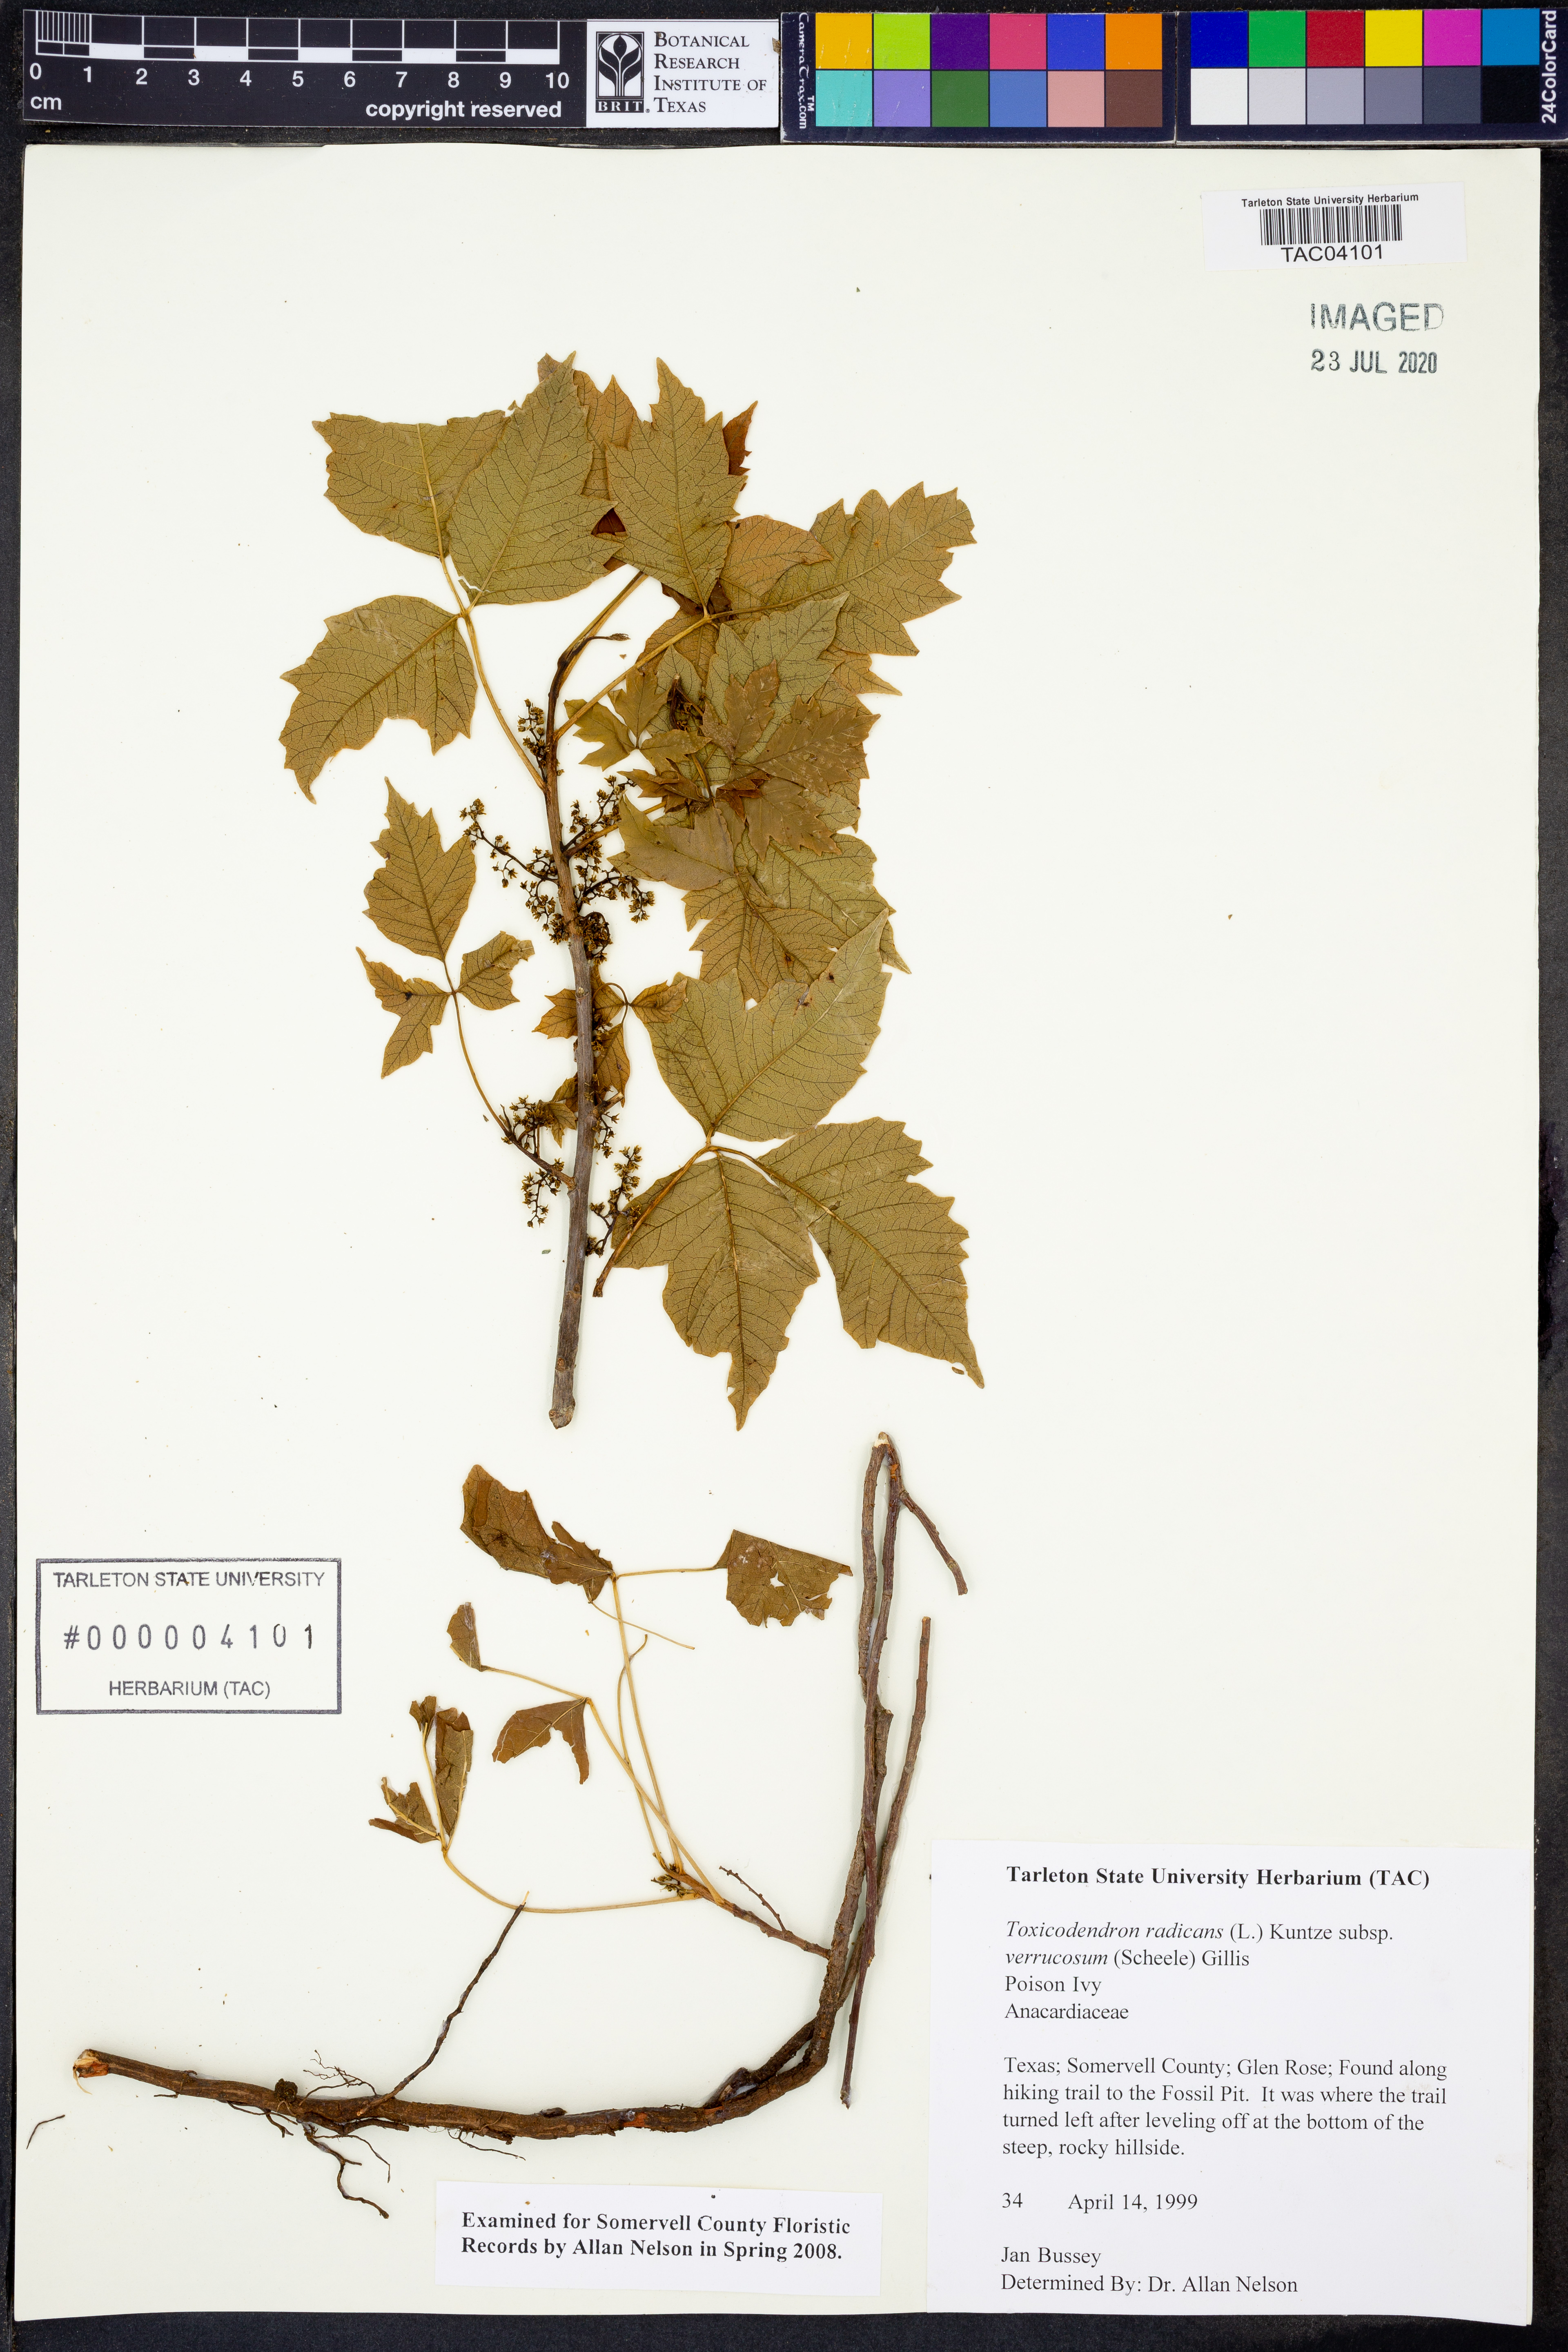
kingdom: Plantae
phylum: Tracheophyta
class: Magnoliopsida
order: Sapindales
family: Anacardiaceae
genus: Toxicodendron
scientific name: Toxicodendron radicans
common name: Poison ivy
